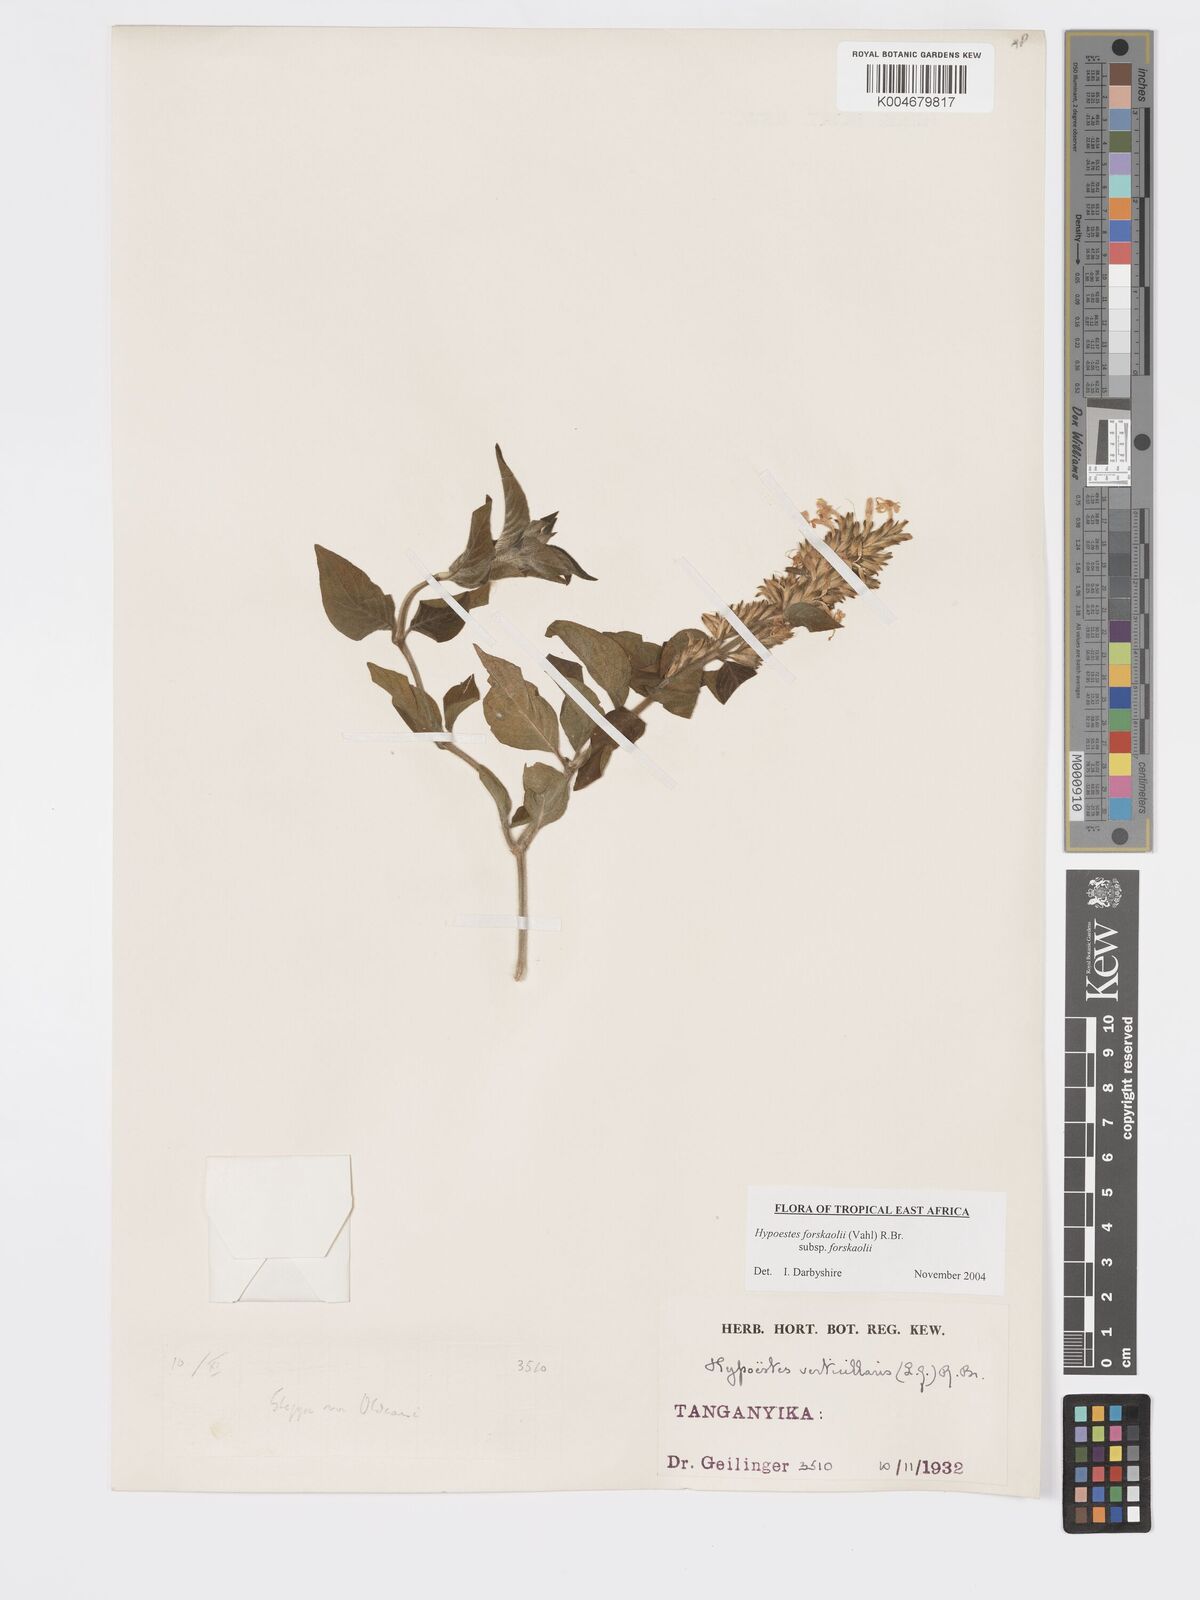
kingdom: Plantae
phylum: Tracheophyta
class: Magnoliopsida
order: Lamiales
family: Acanthaceae
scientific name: Acanthaceae
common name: Acanthaceae
